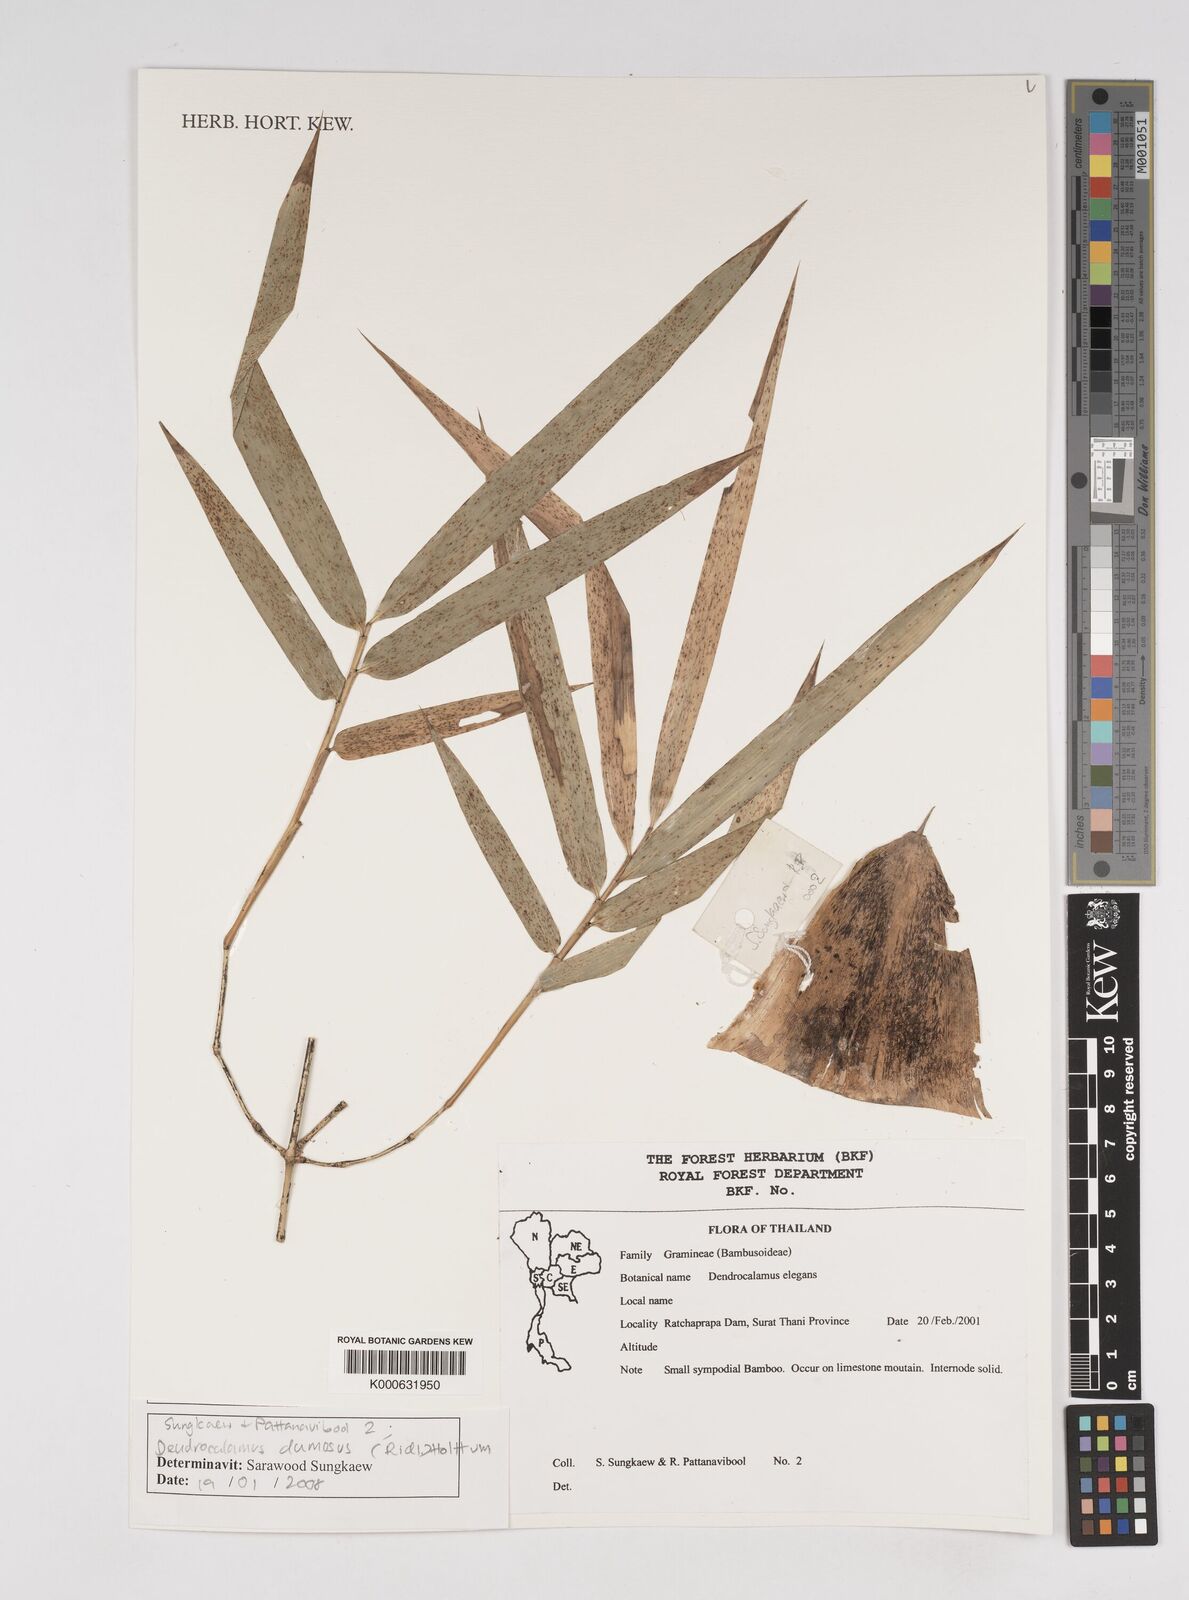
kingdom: Plantae
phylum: Tracheophyta
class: Liliopsida
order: Poales
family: Poaceae
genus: Dendrocalamus
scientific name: Dendrocalamus dumosus
